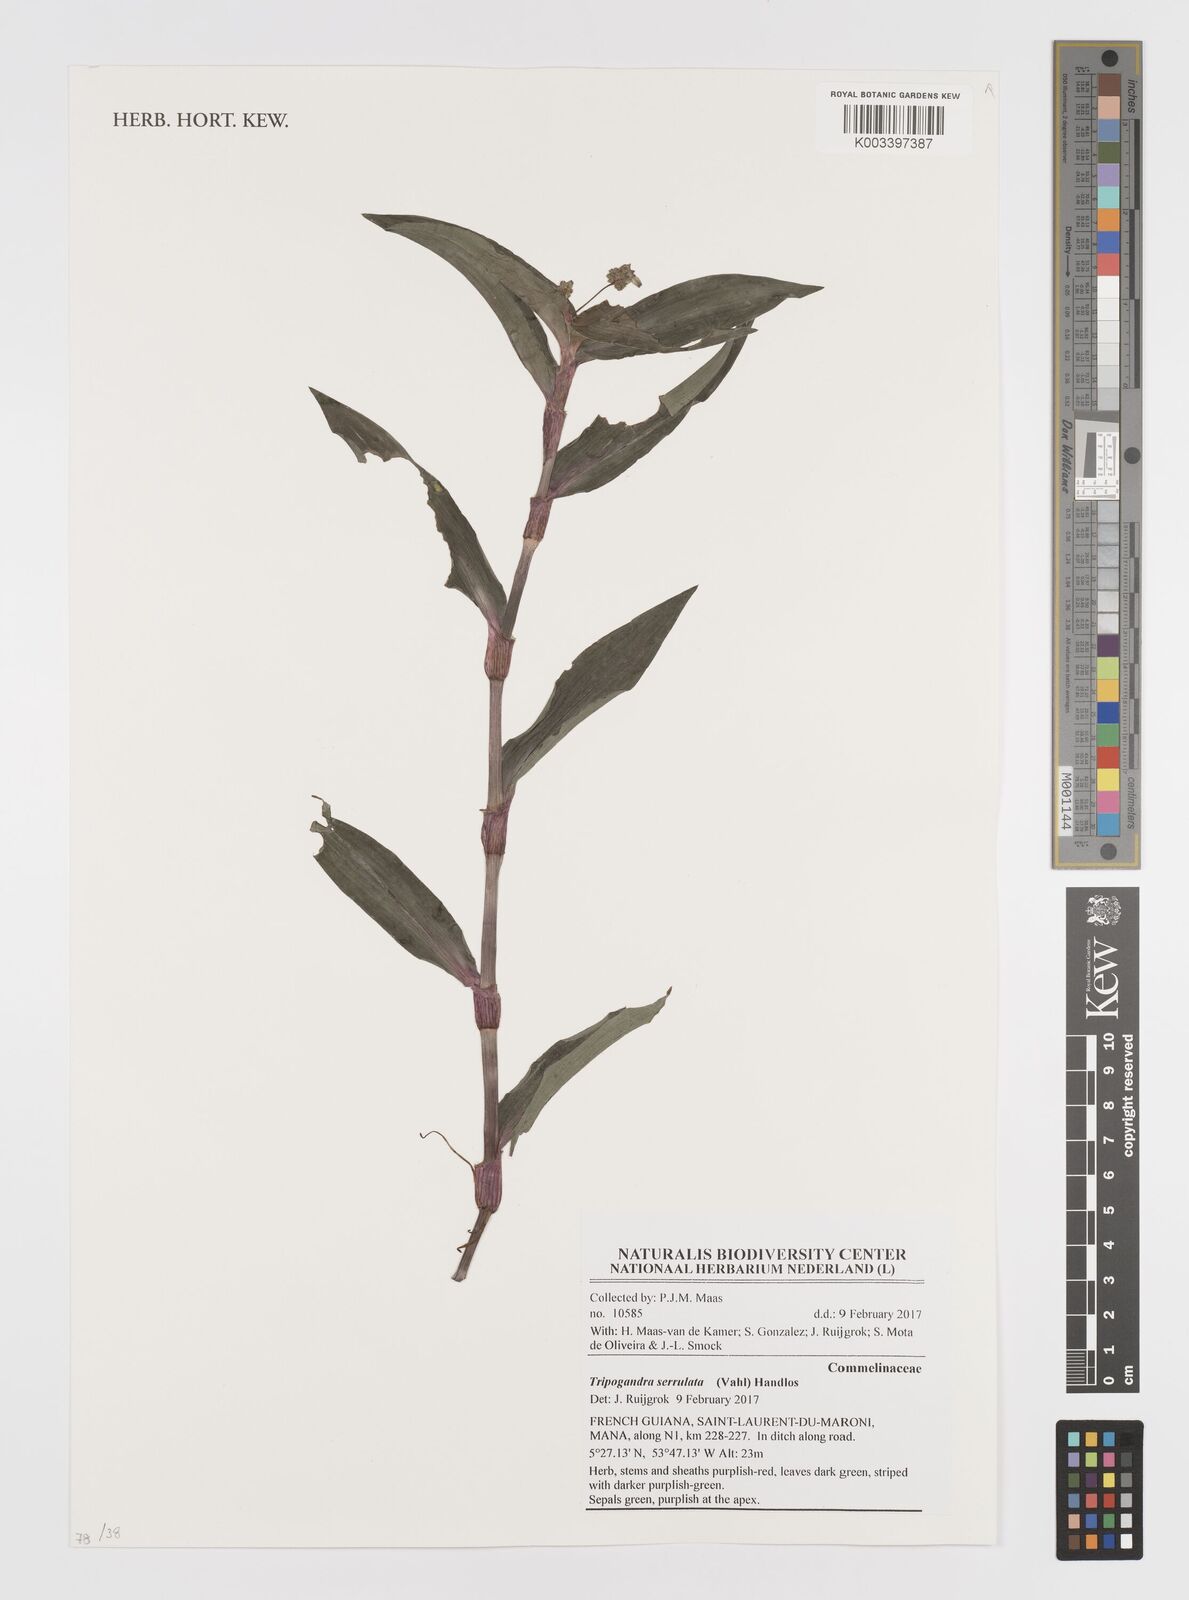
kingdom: Plantae
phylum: Tracheophyta
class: Liliopsida
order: Commelinales
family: Commelinaceae
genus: Callisia
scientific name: Callisia serrulata
